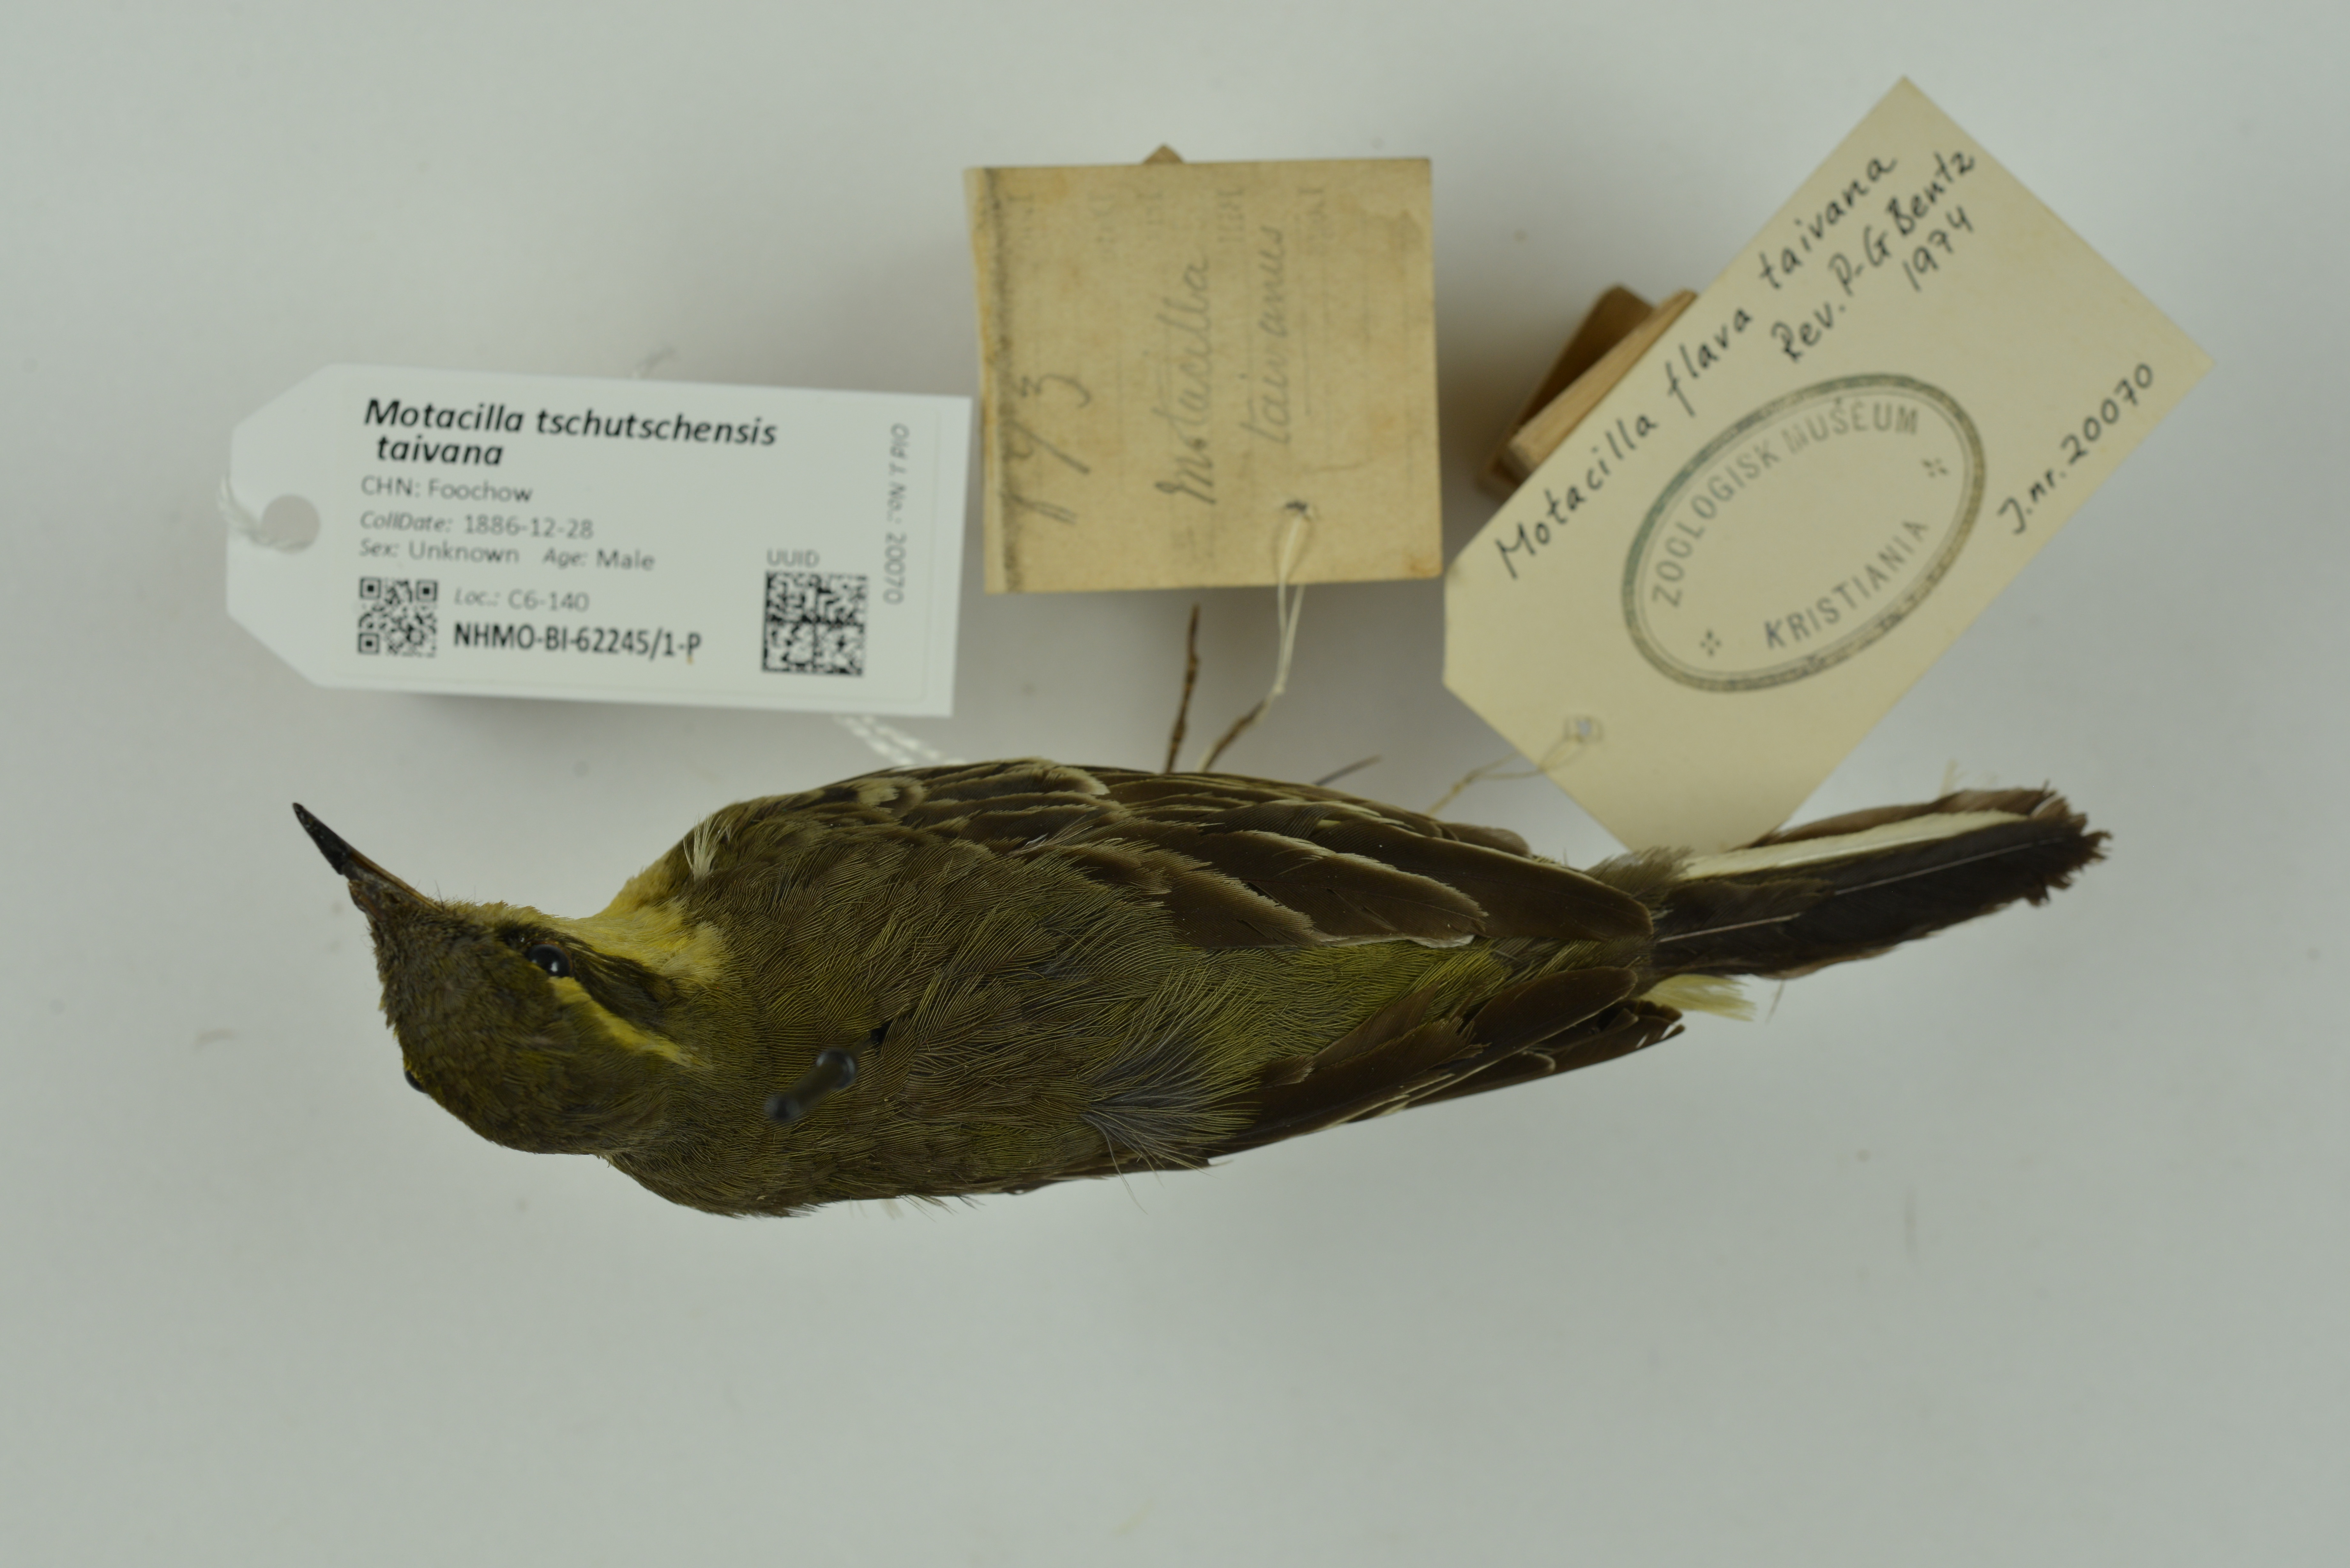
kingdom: Animalia
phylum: Chordata
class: Aves
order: Passeriformes
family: Motacillidae
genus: Motacilla
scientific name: Motacilla tschutschensis
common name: Eastern yellow wagtail
